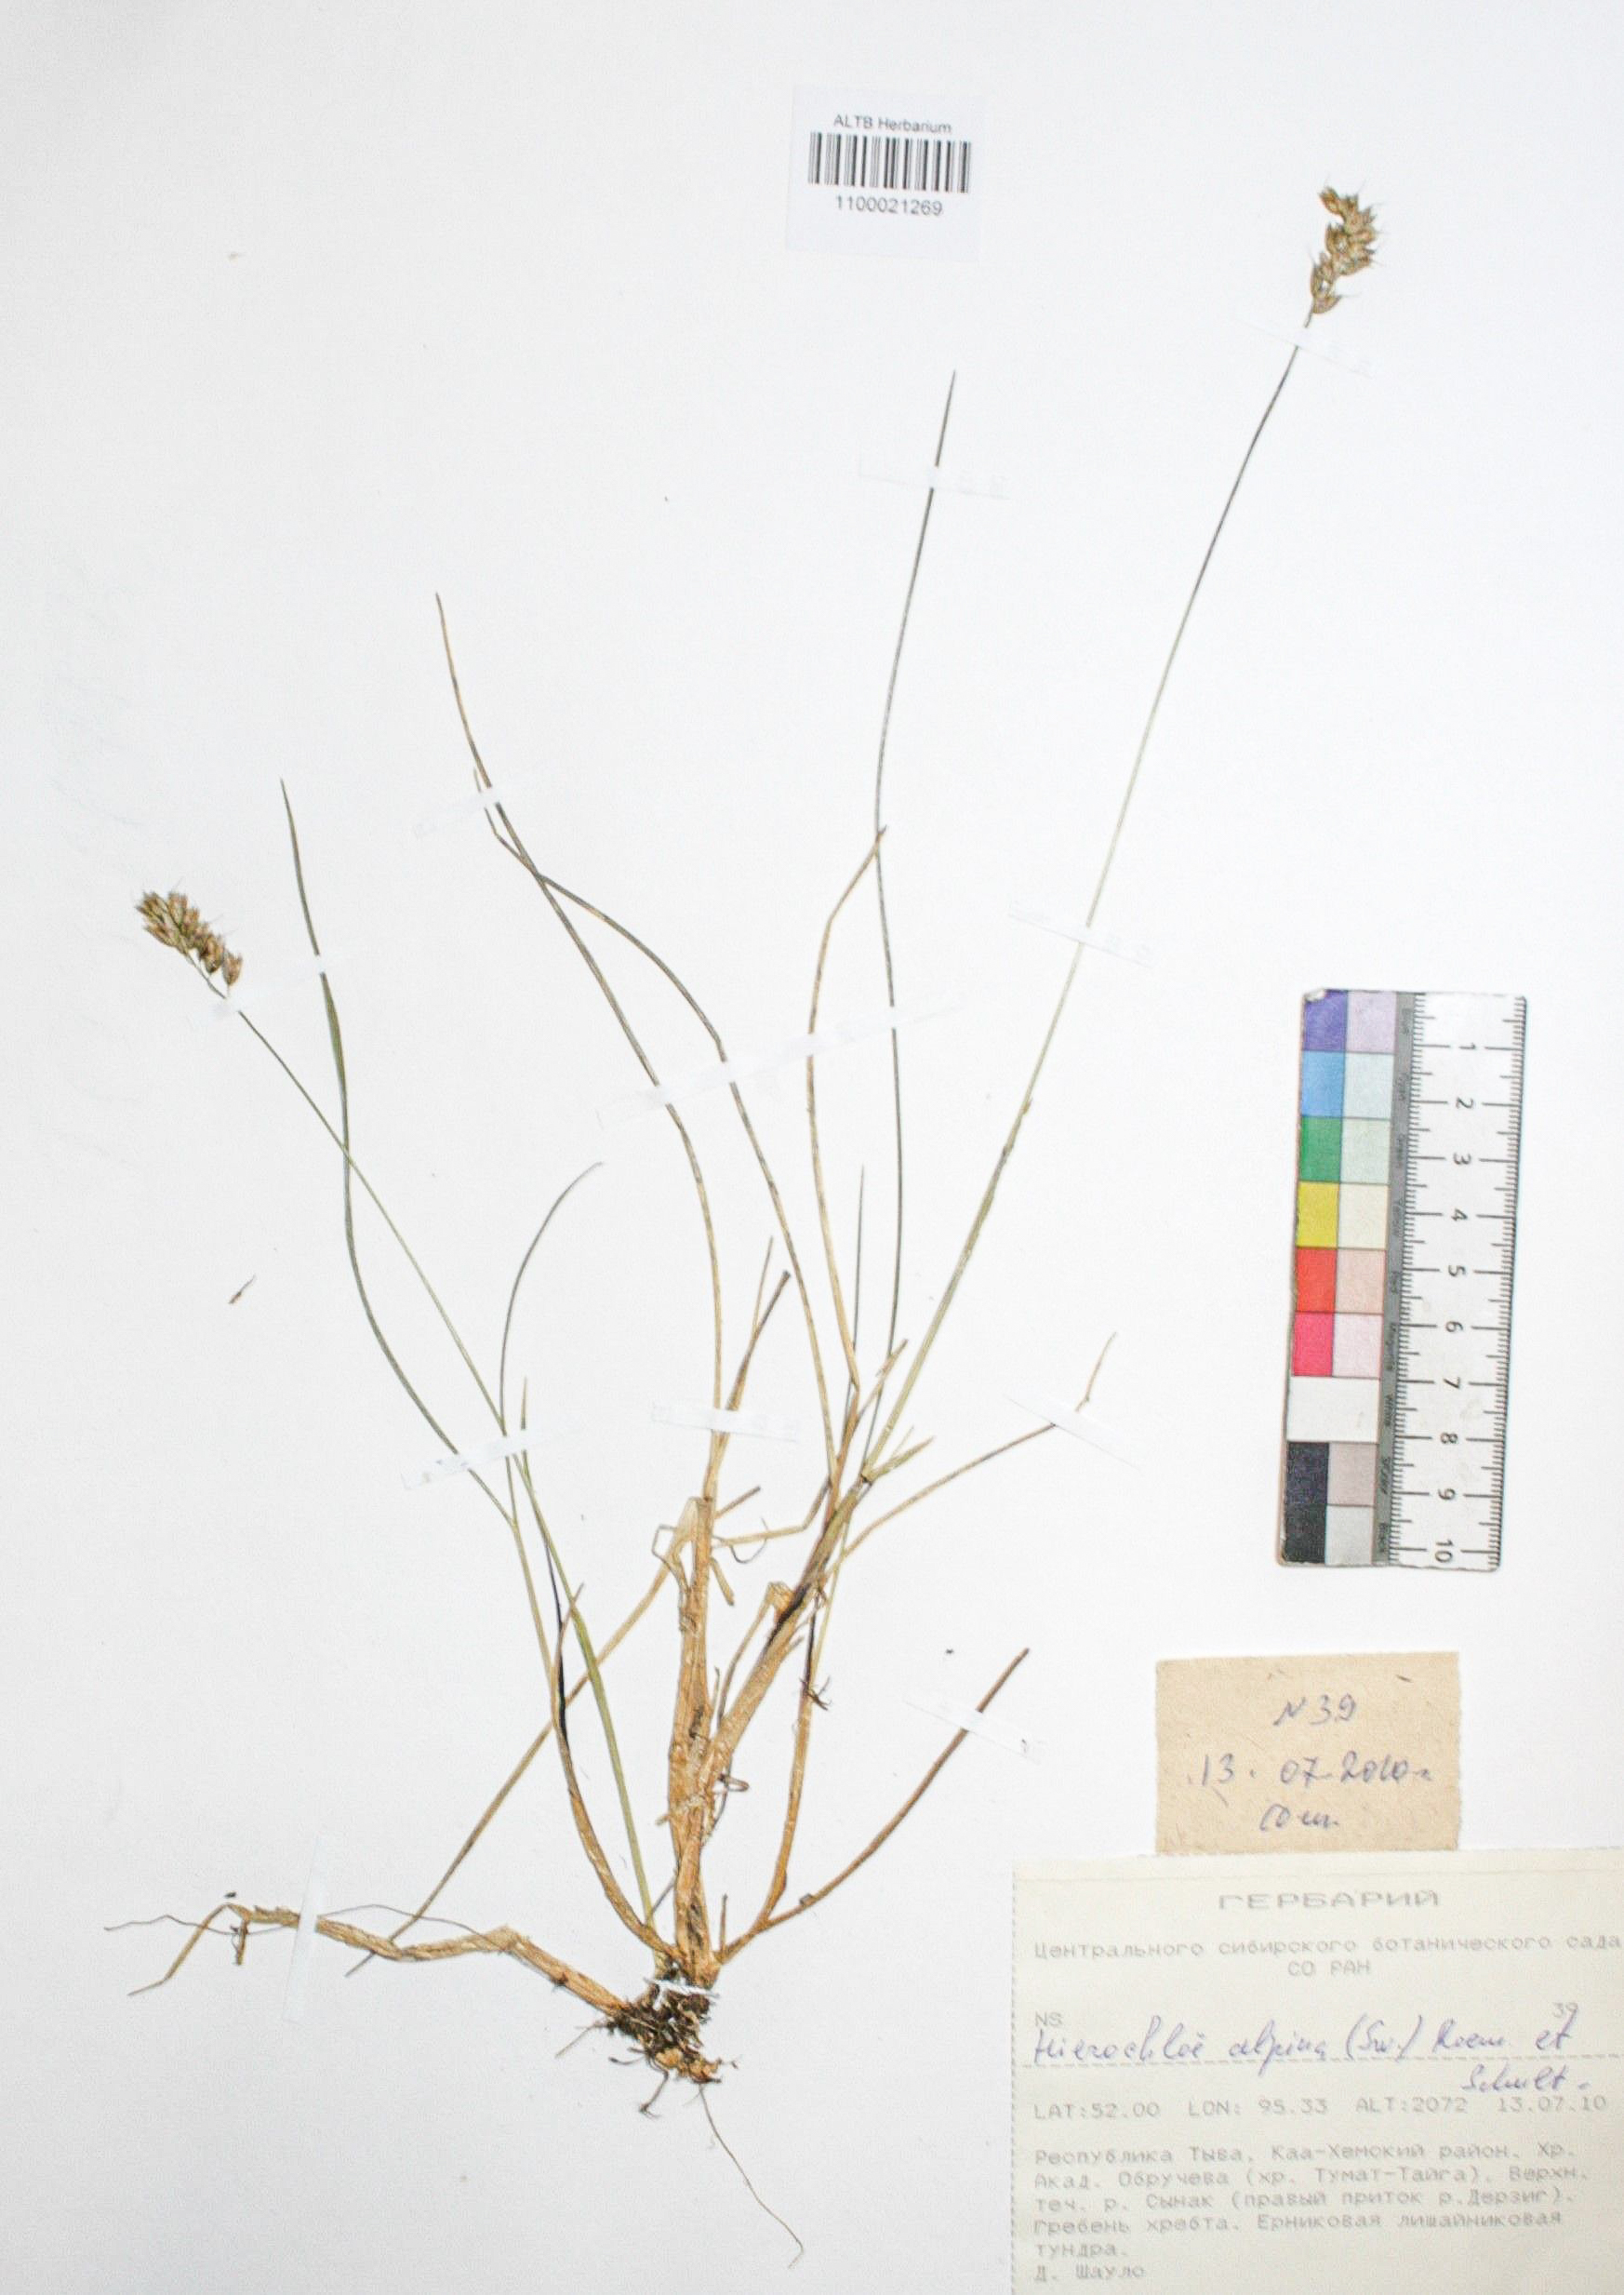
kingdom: Plantae
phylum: Tracheophyta
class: Liliopsida
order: Poales
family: Poaceae
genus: Anthoxanthum
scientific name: Anthoxanthum monticola
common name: Alpine sweetgrass
